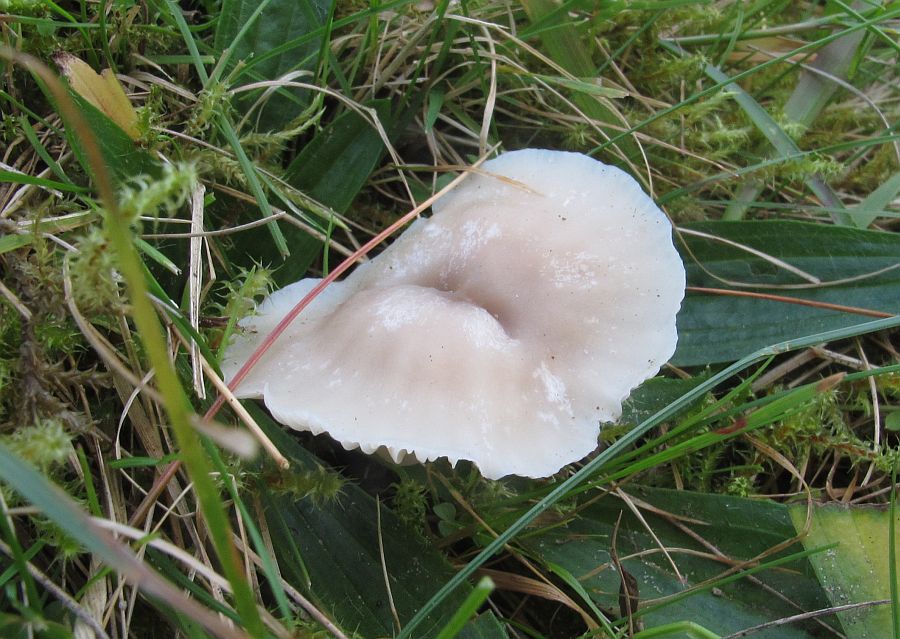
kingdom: Fungi
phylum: Basidiomycota
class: Agaricomycetes
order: Agaricales
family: Hygrophoraceae
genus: Cuphophyllus
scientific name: Cuphophyllus virgineus
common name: snehvid vokshat
